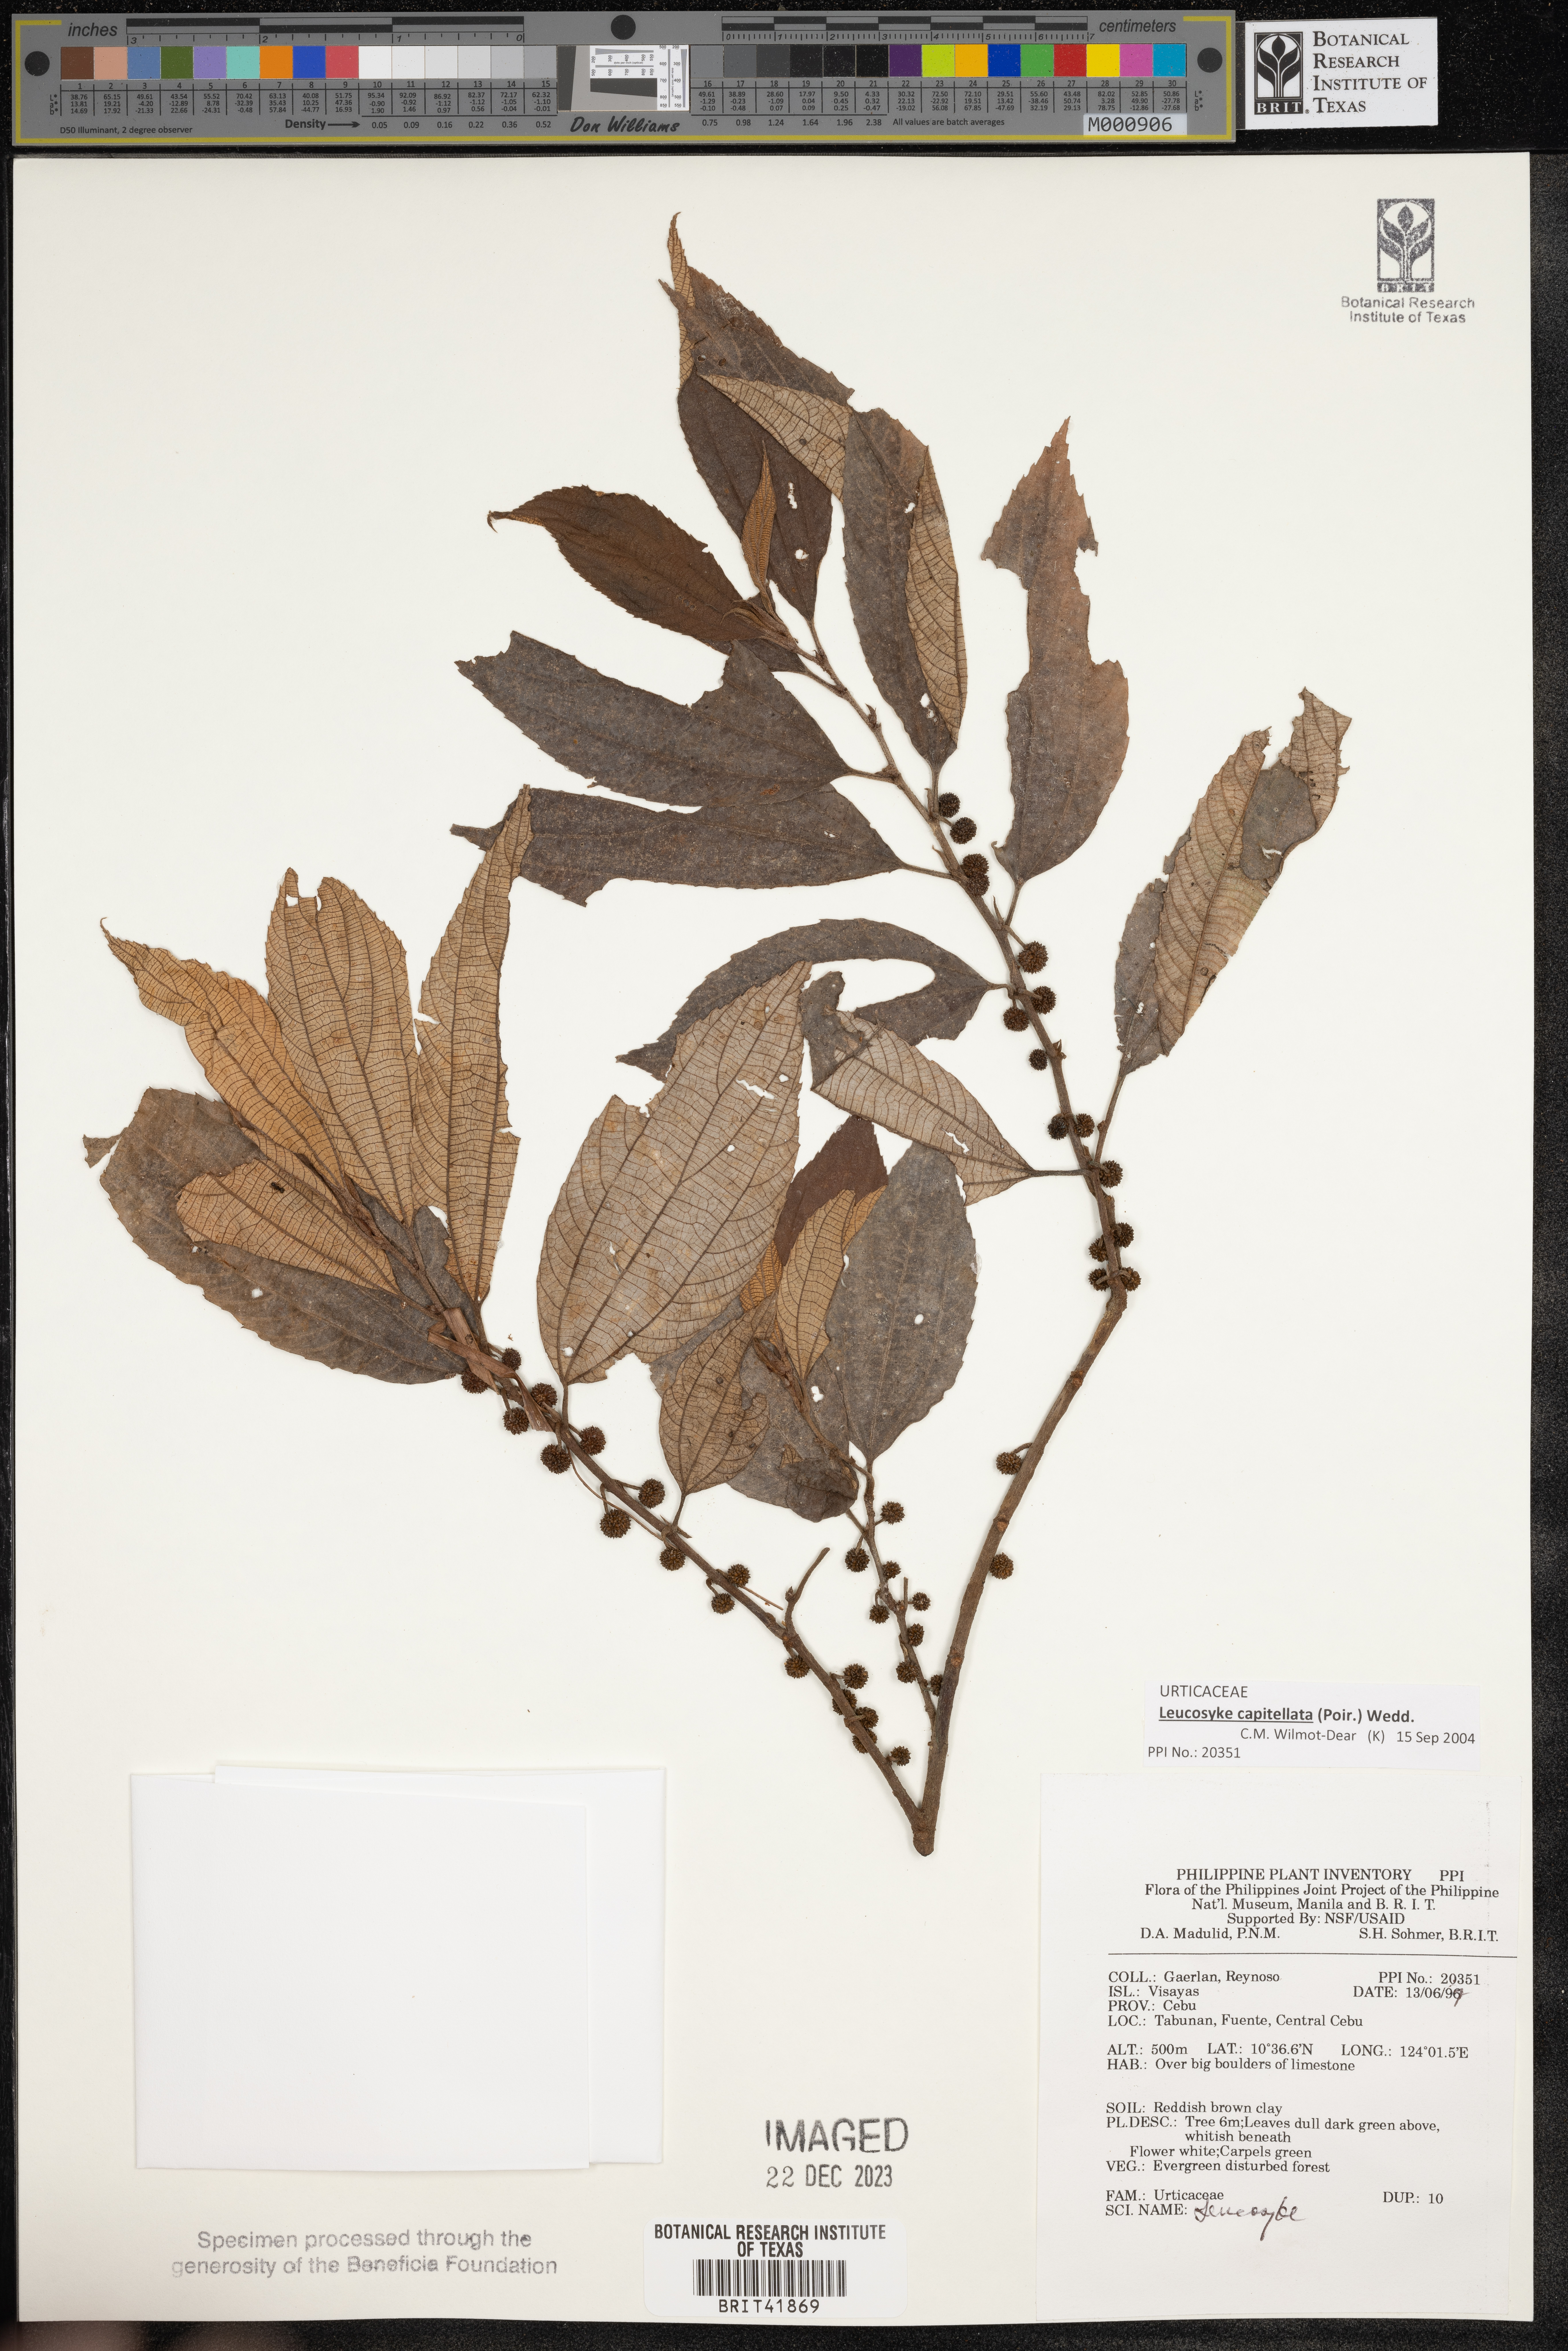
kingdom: Plantae
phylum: Tracheophyta
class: Magnoliopsida
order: Rosales
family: Urticaceae
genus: Leucosyke
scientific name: Leucosyke
